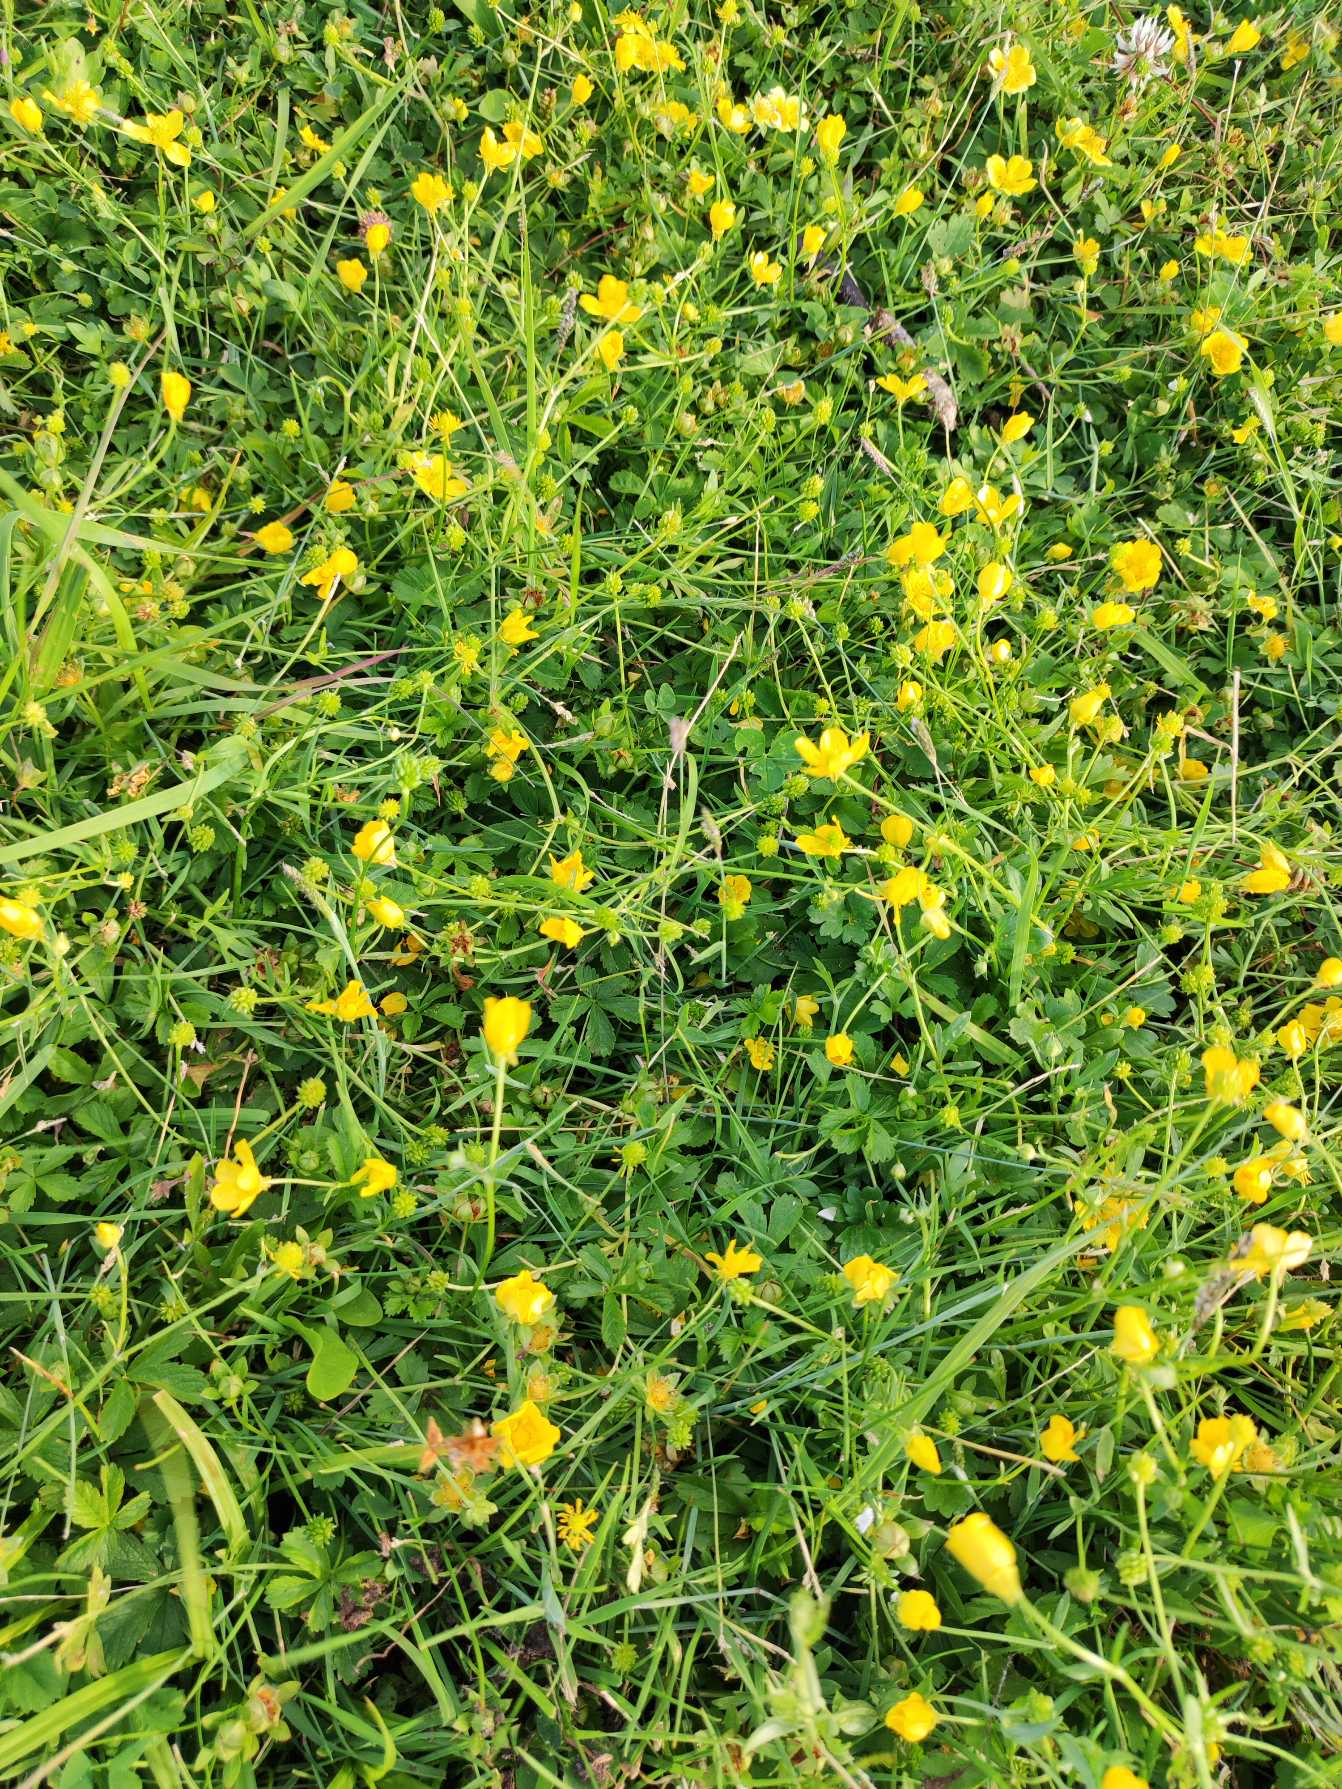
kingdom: Plantae
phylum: Tracheophyta
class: Magnoliopsida
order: Ranunculales
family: Ranunculaceae
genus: Ranunculus
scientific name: Ranunculus sardous
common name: Stivhåret ranunkel
